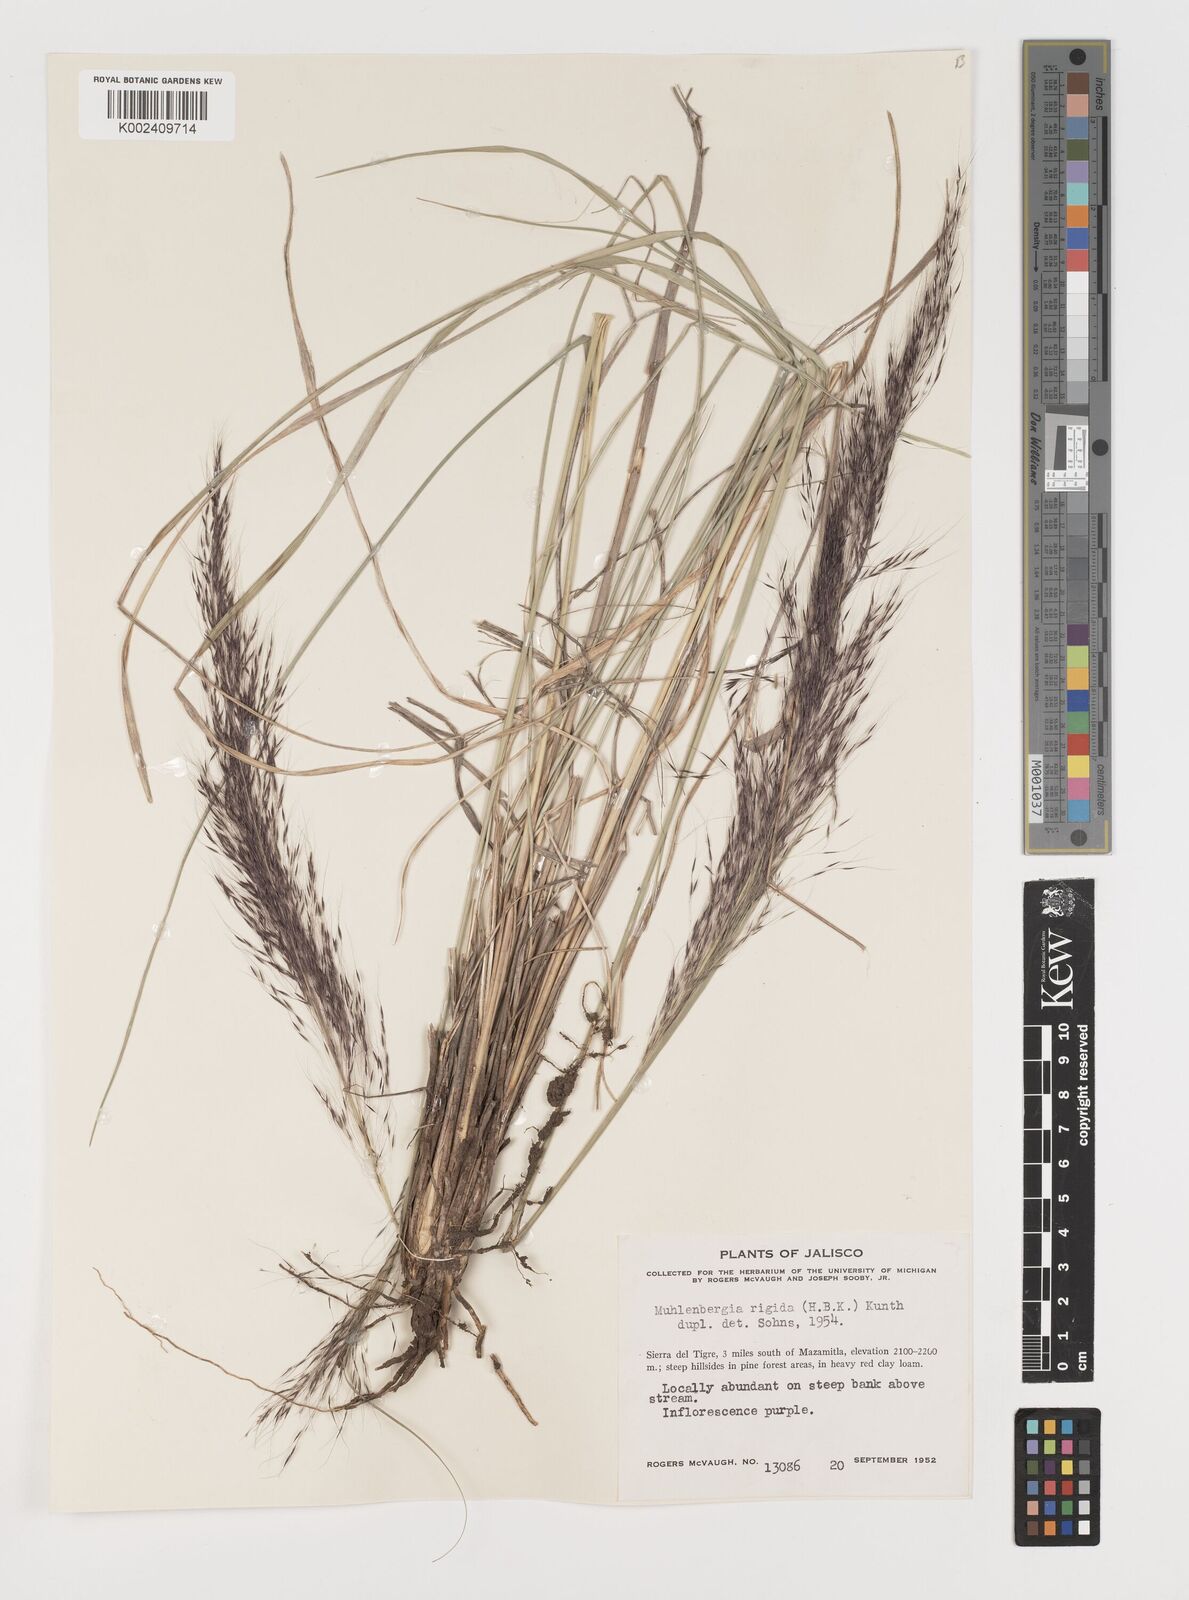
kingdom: Plantae
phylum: Tracheophyta
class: Liliopsida
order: Poales
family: Poaceae
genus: Muhlenbergia
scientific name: Muhlenbergia rigida
